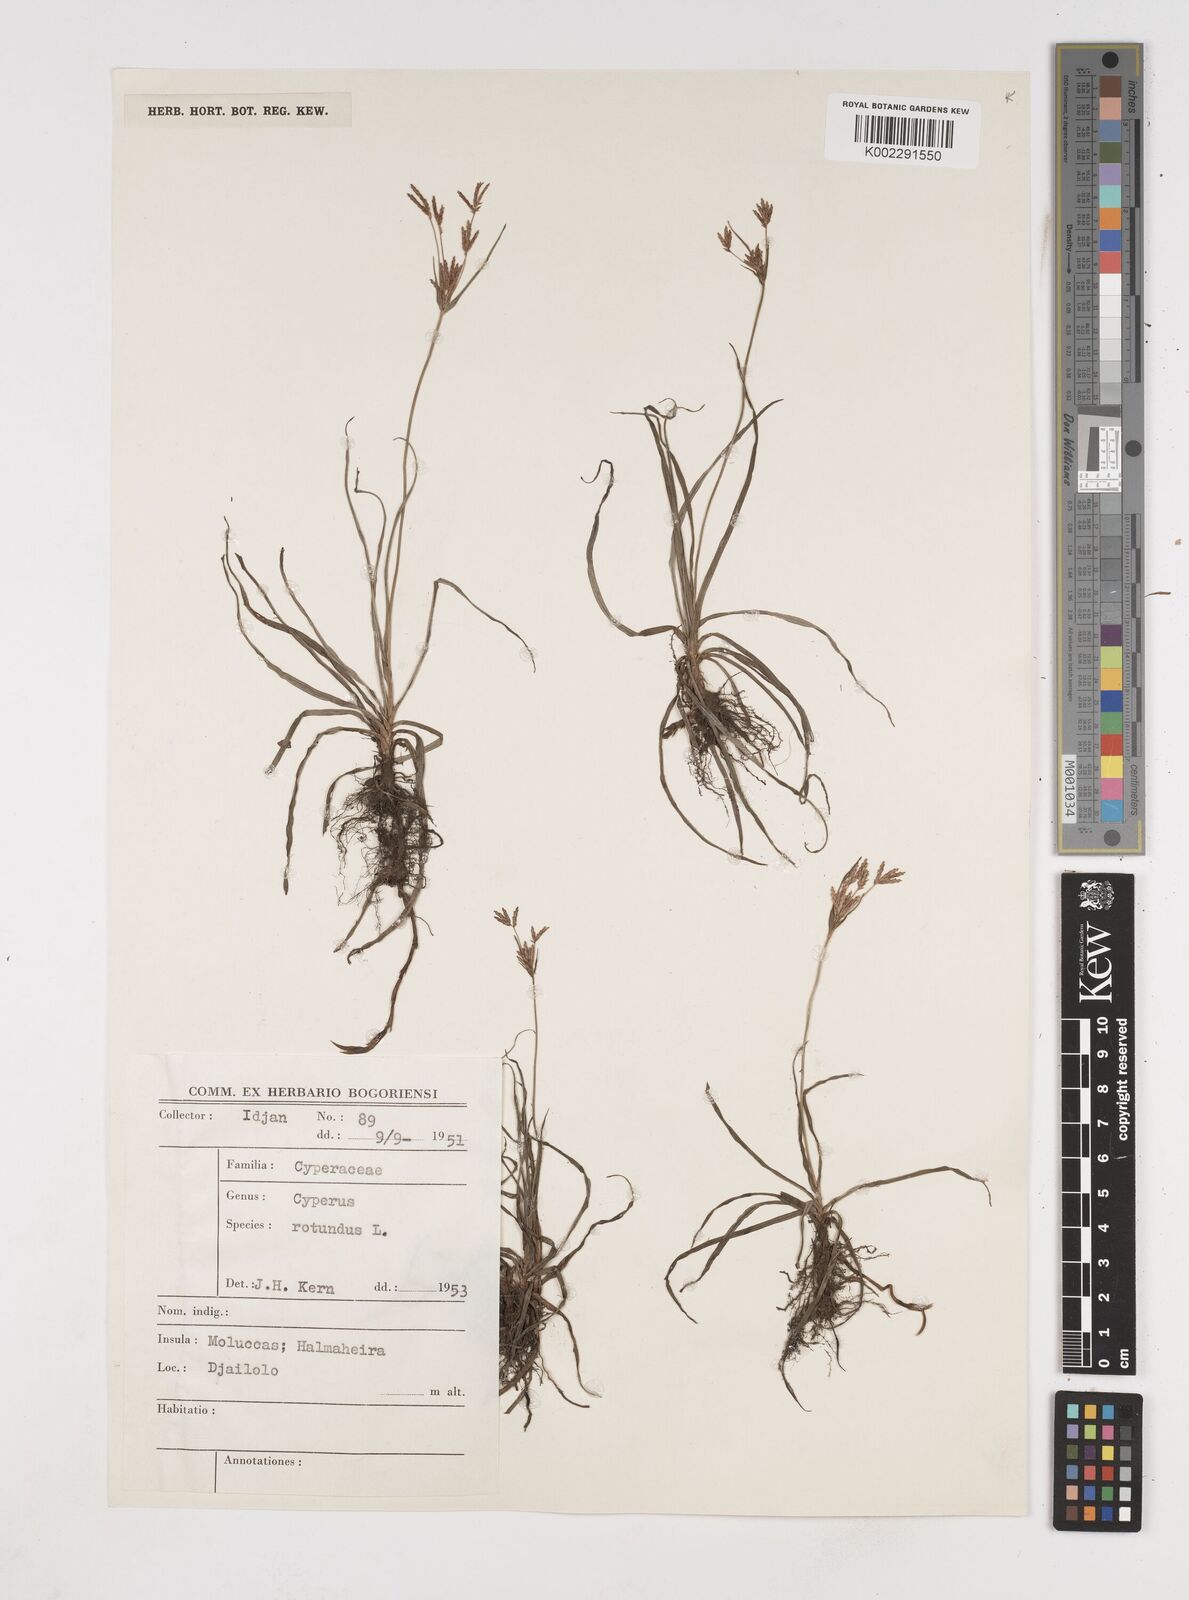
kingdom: Plantae
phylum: Tracheophyta
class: Liliopsida
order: Poales
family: Cyperaceae
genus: Cyperus
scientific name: Cyperus rotundus
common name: Nutgrass
